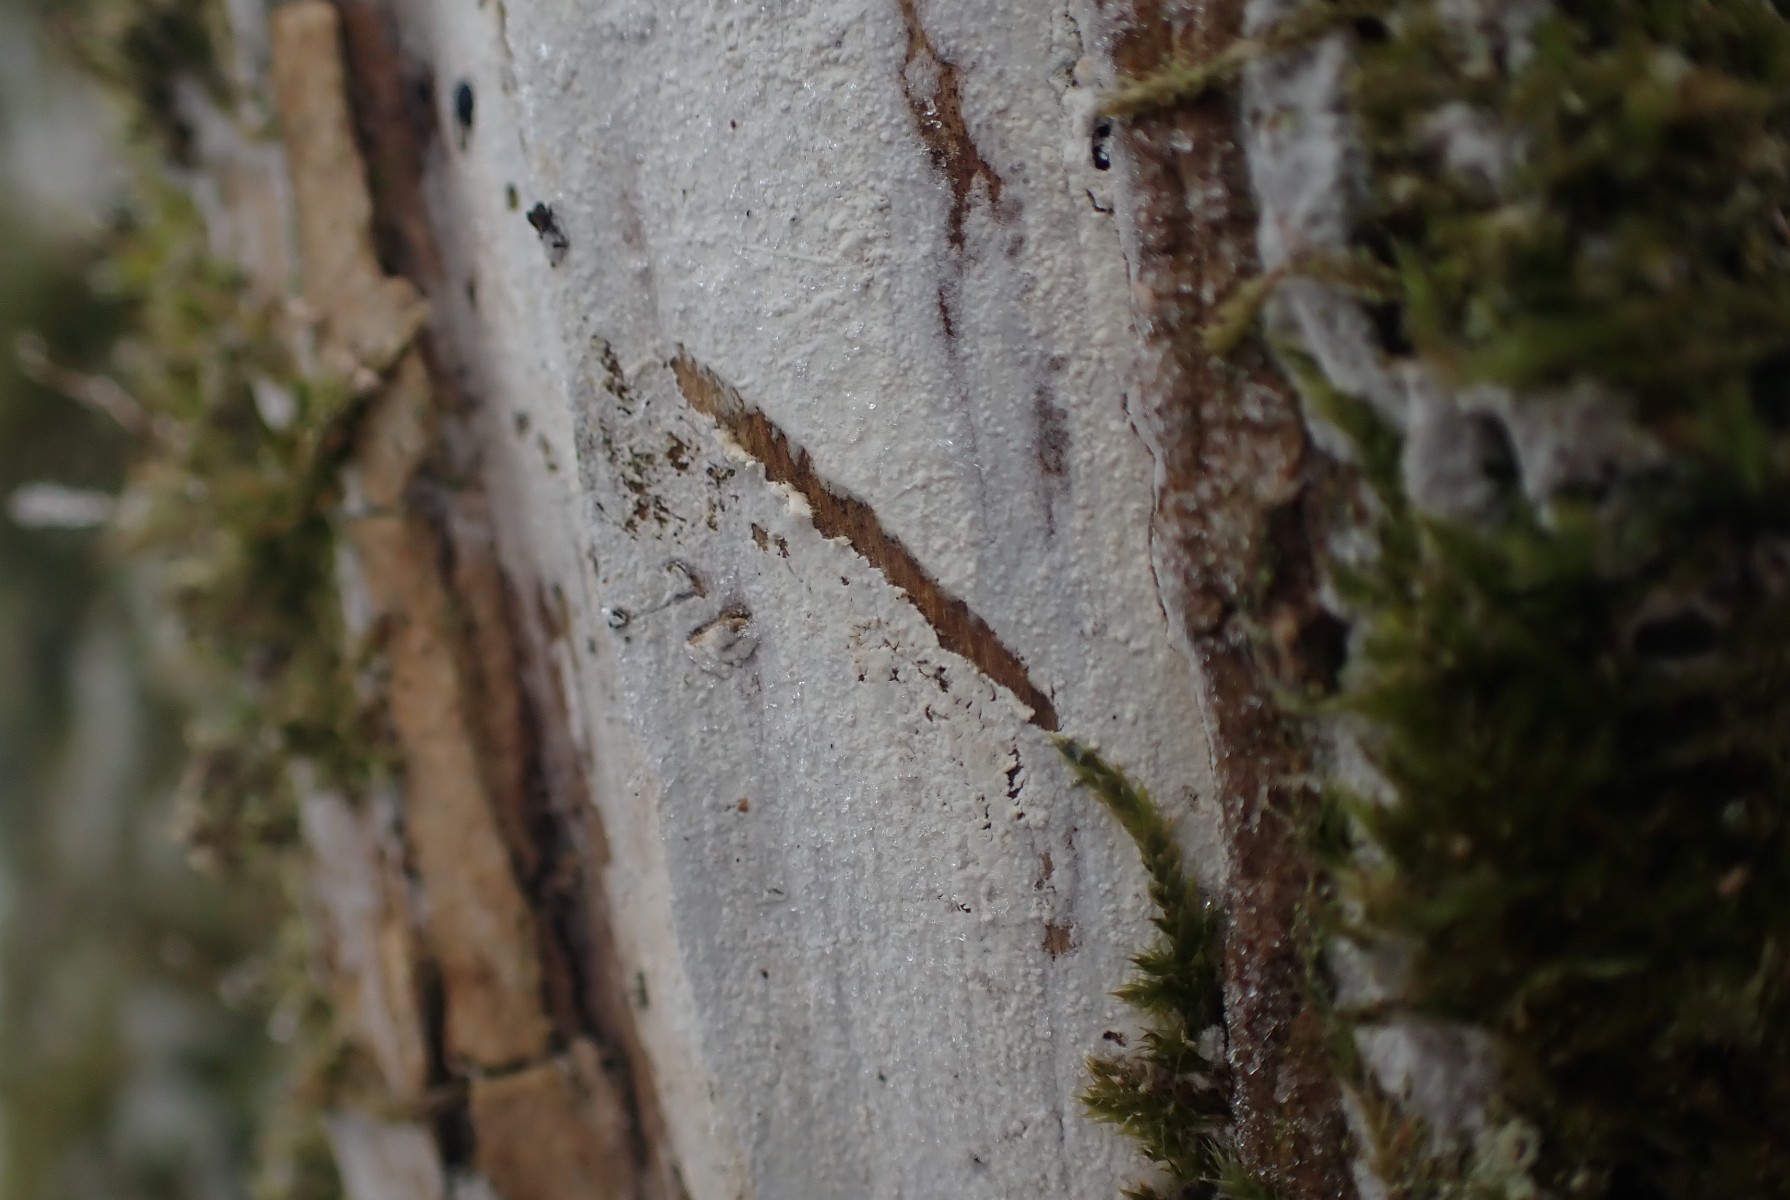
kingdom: Fungi
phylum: Basidiomycota
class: Agaricomycetes
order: Corticiales
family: Corticiaceae
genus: Lyomyces
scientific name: Lyomyces sambuci
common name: almindelig hyldehinde
